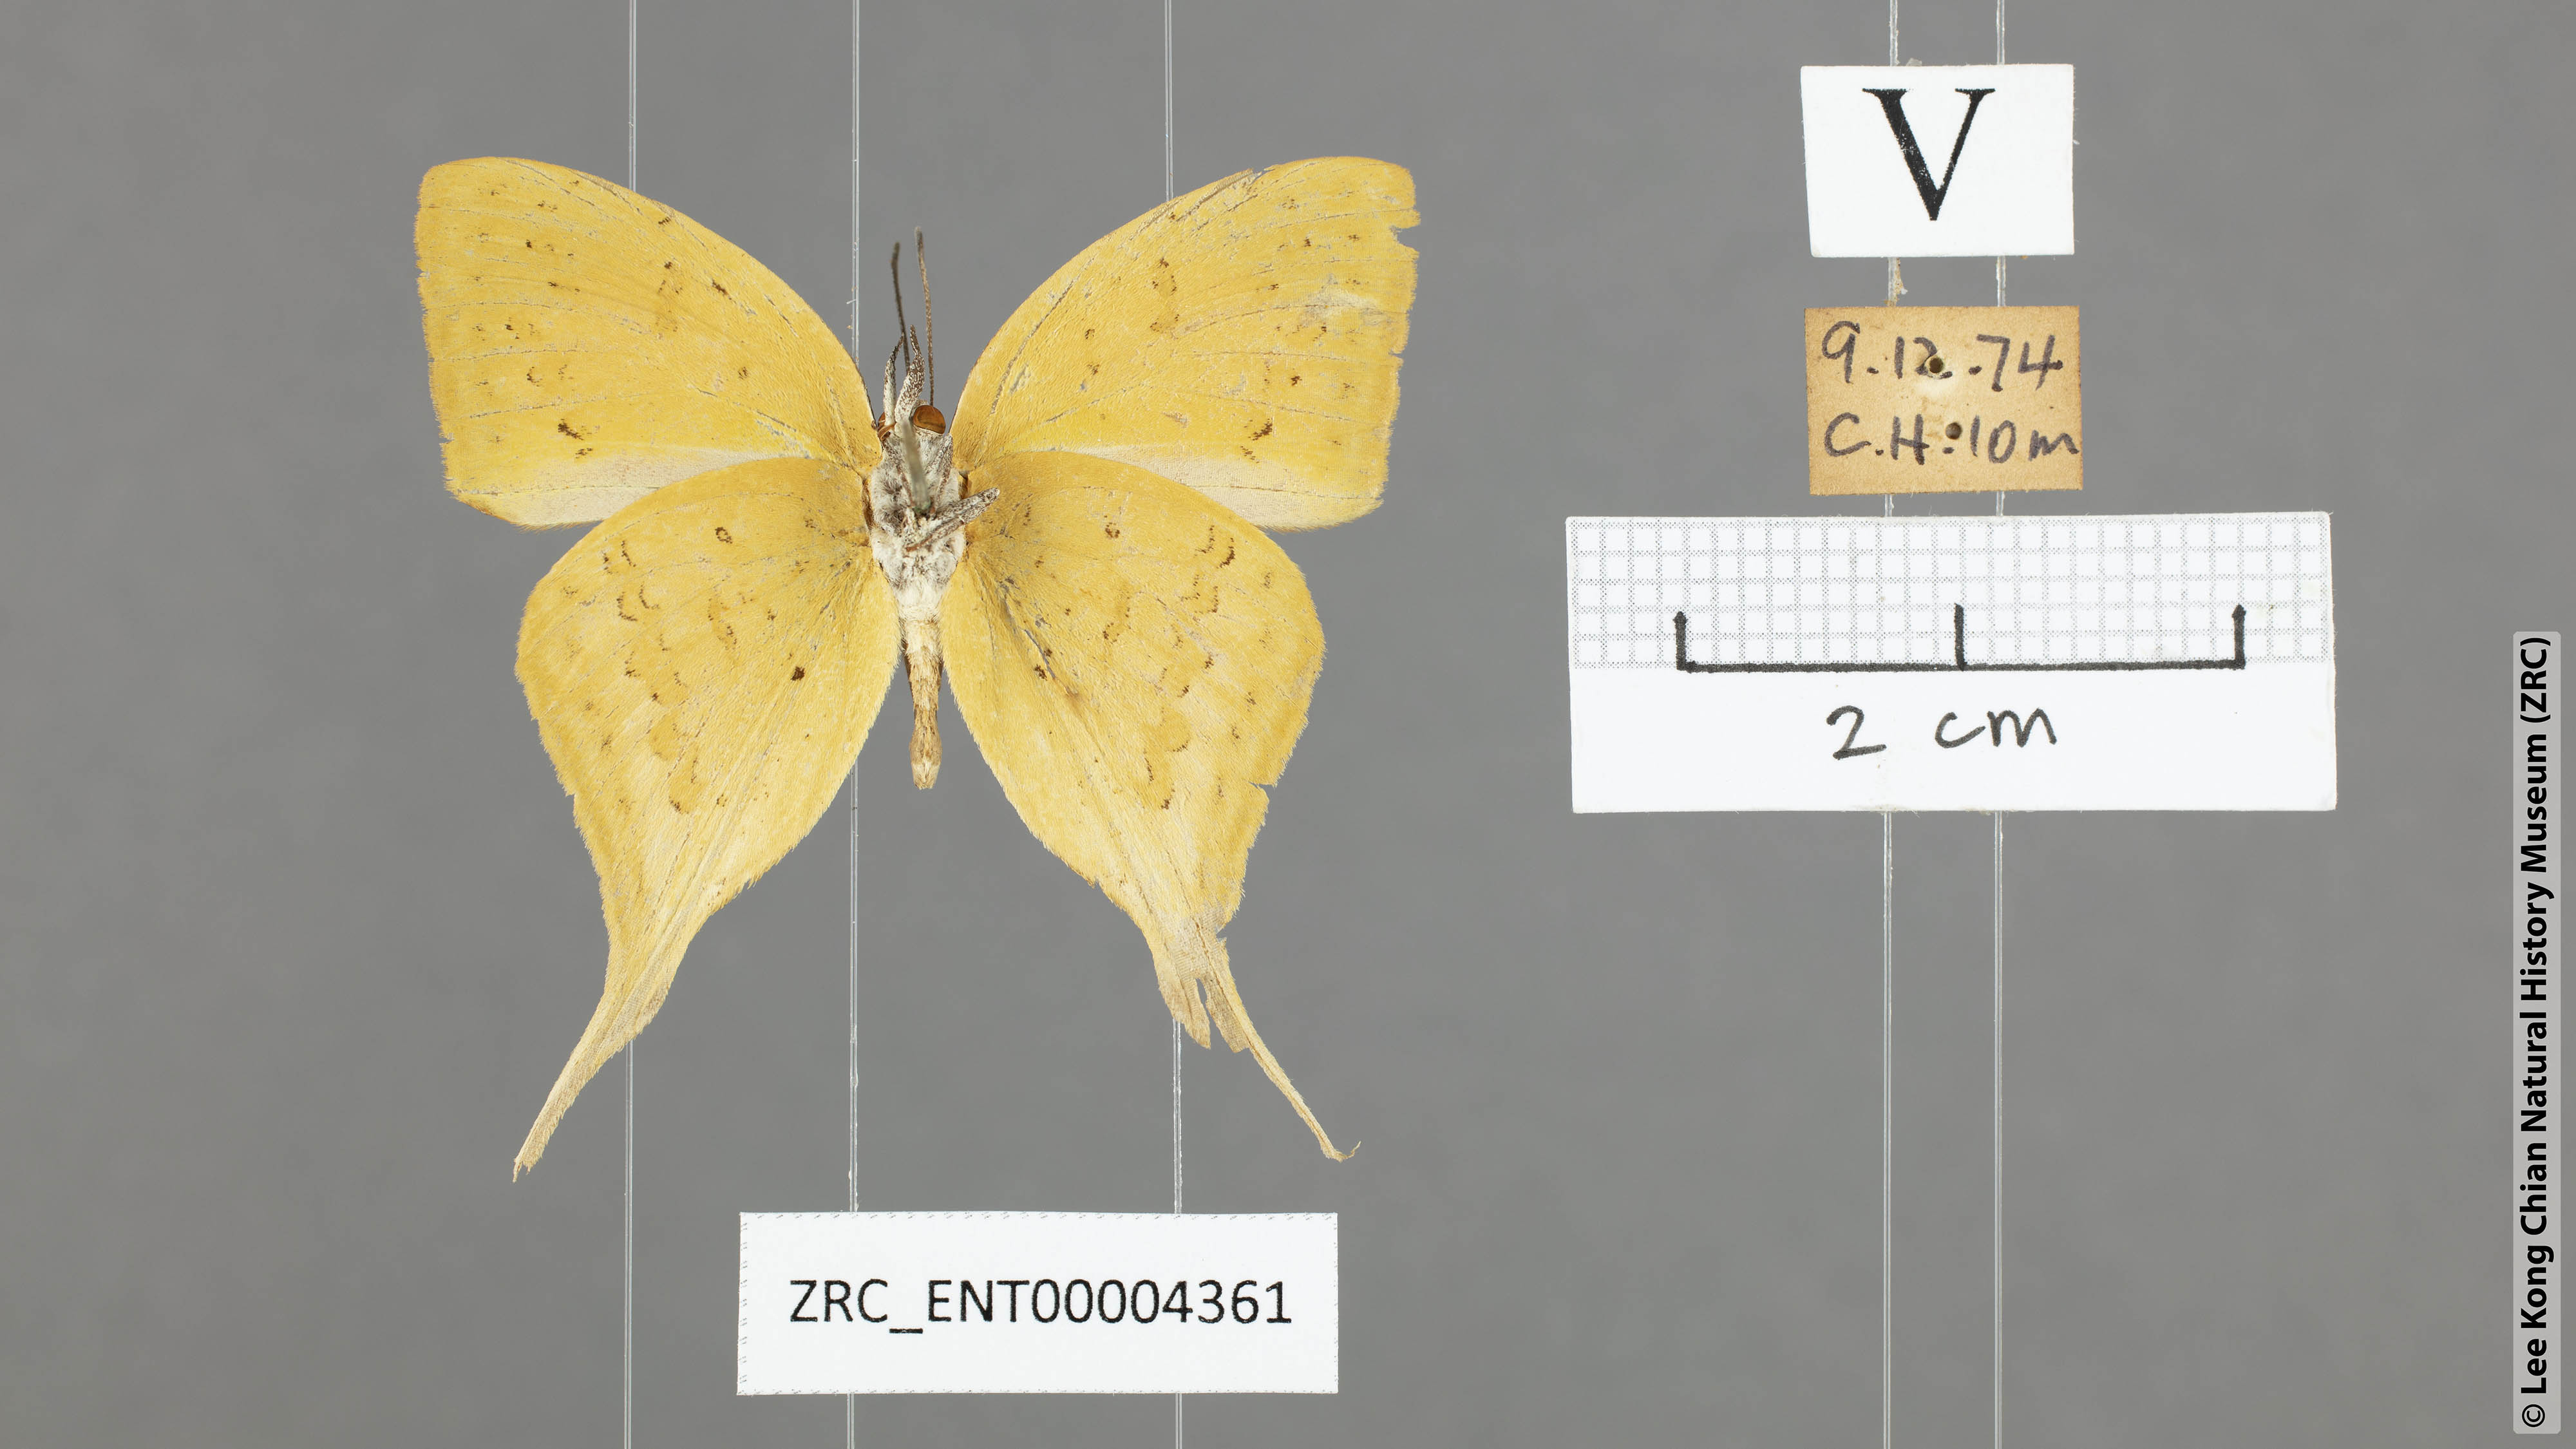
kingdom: Animalia
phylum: Arthropoda
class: Insecta
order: Lepidoptera
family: Lycaenidae
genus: Loxura
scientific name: Loxura cassiopeia
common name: Malayan yamfly
